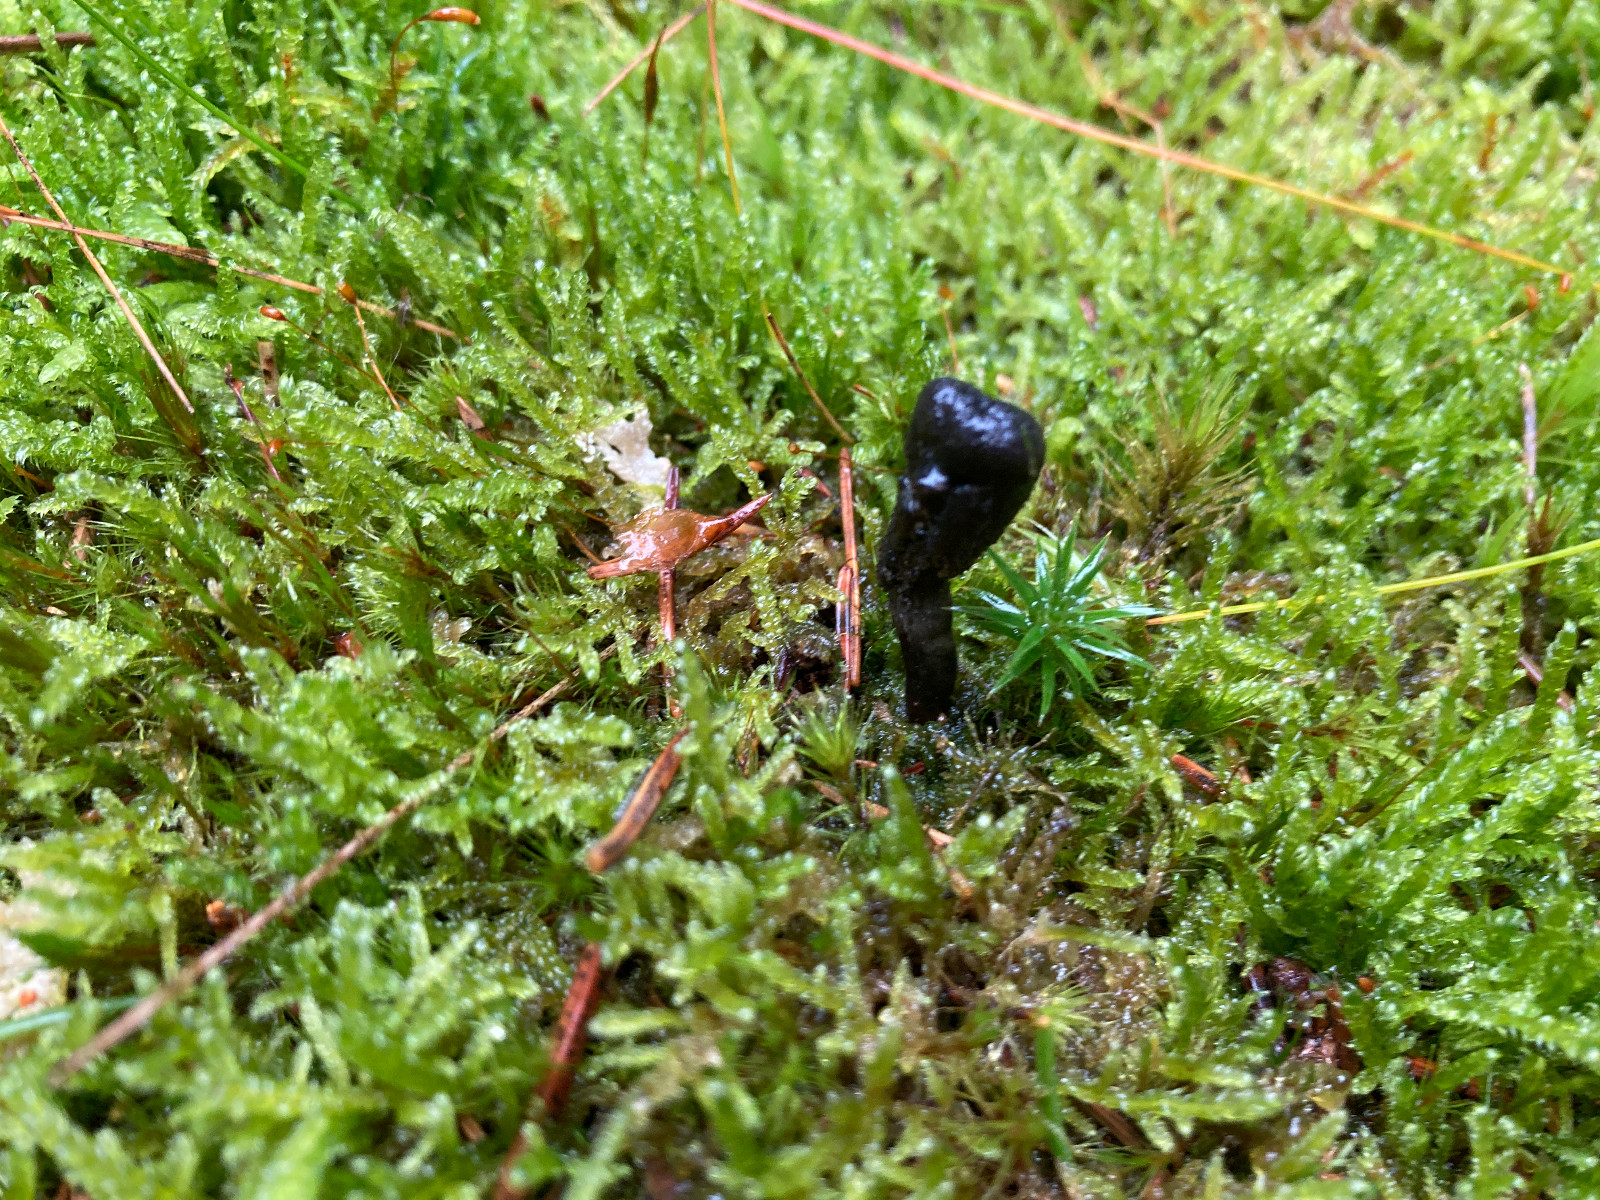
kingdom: Fungi
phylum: Ascomycota
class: Sordariomycetes
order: Hypocreales
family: Ophiocordycipitaceae
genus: Tolypocladium
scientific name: Tolypocladium ophioglossoides
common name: slank snyltekølle
